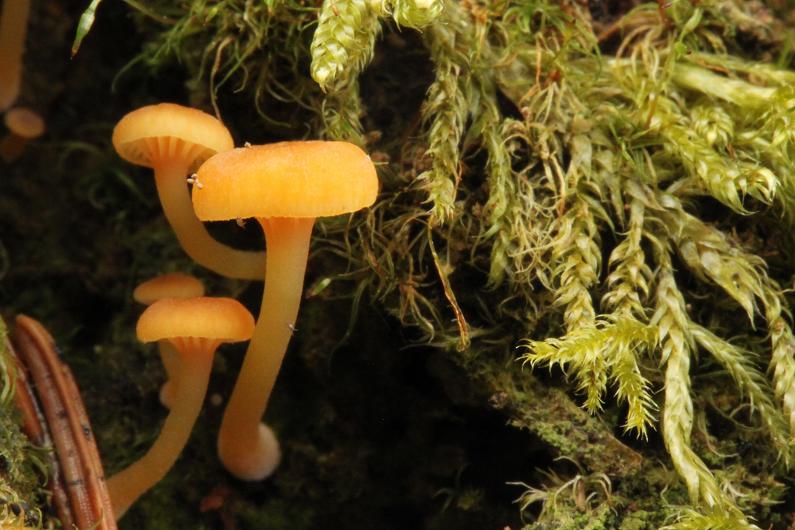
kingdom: Fungi
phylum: Basidiomycota
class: Agaricomycetes
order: Agaricales
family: Mycenaceae
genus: Xeromphalina
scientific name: Xeromphalina campanella
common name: klokke-tørhat
